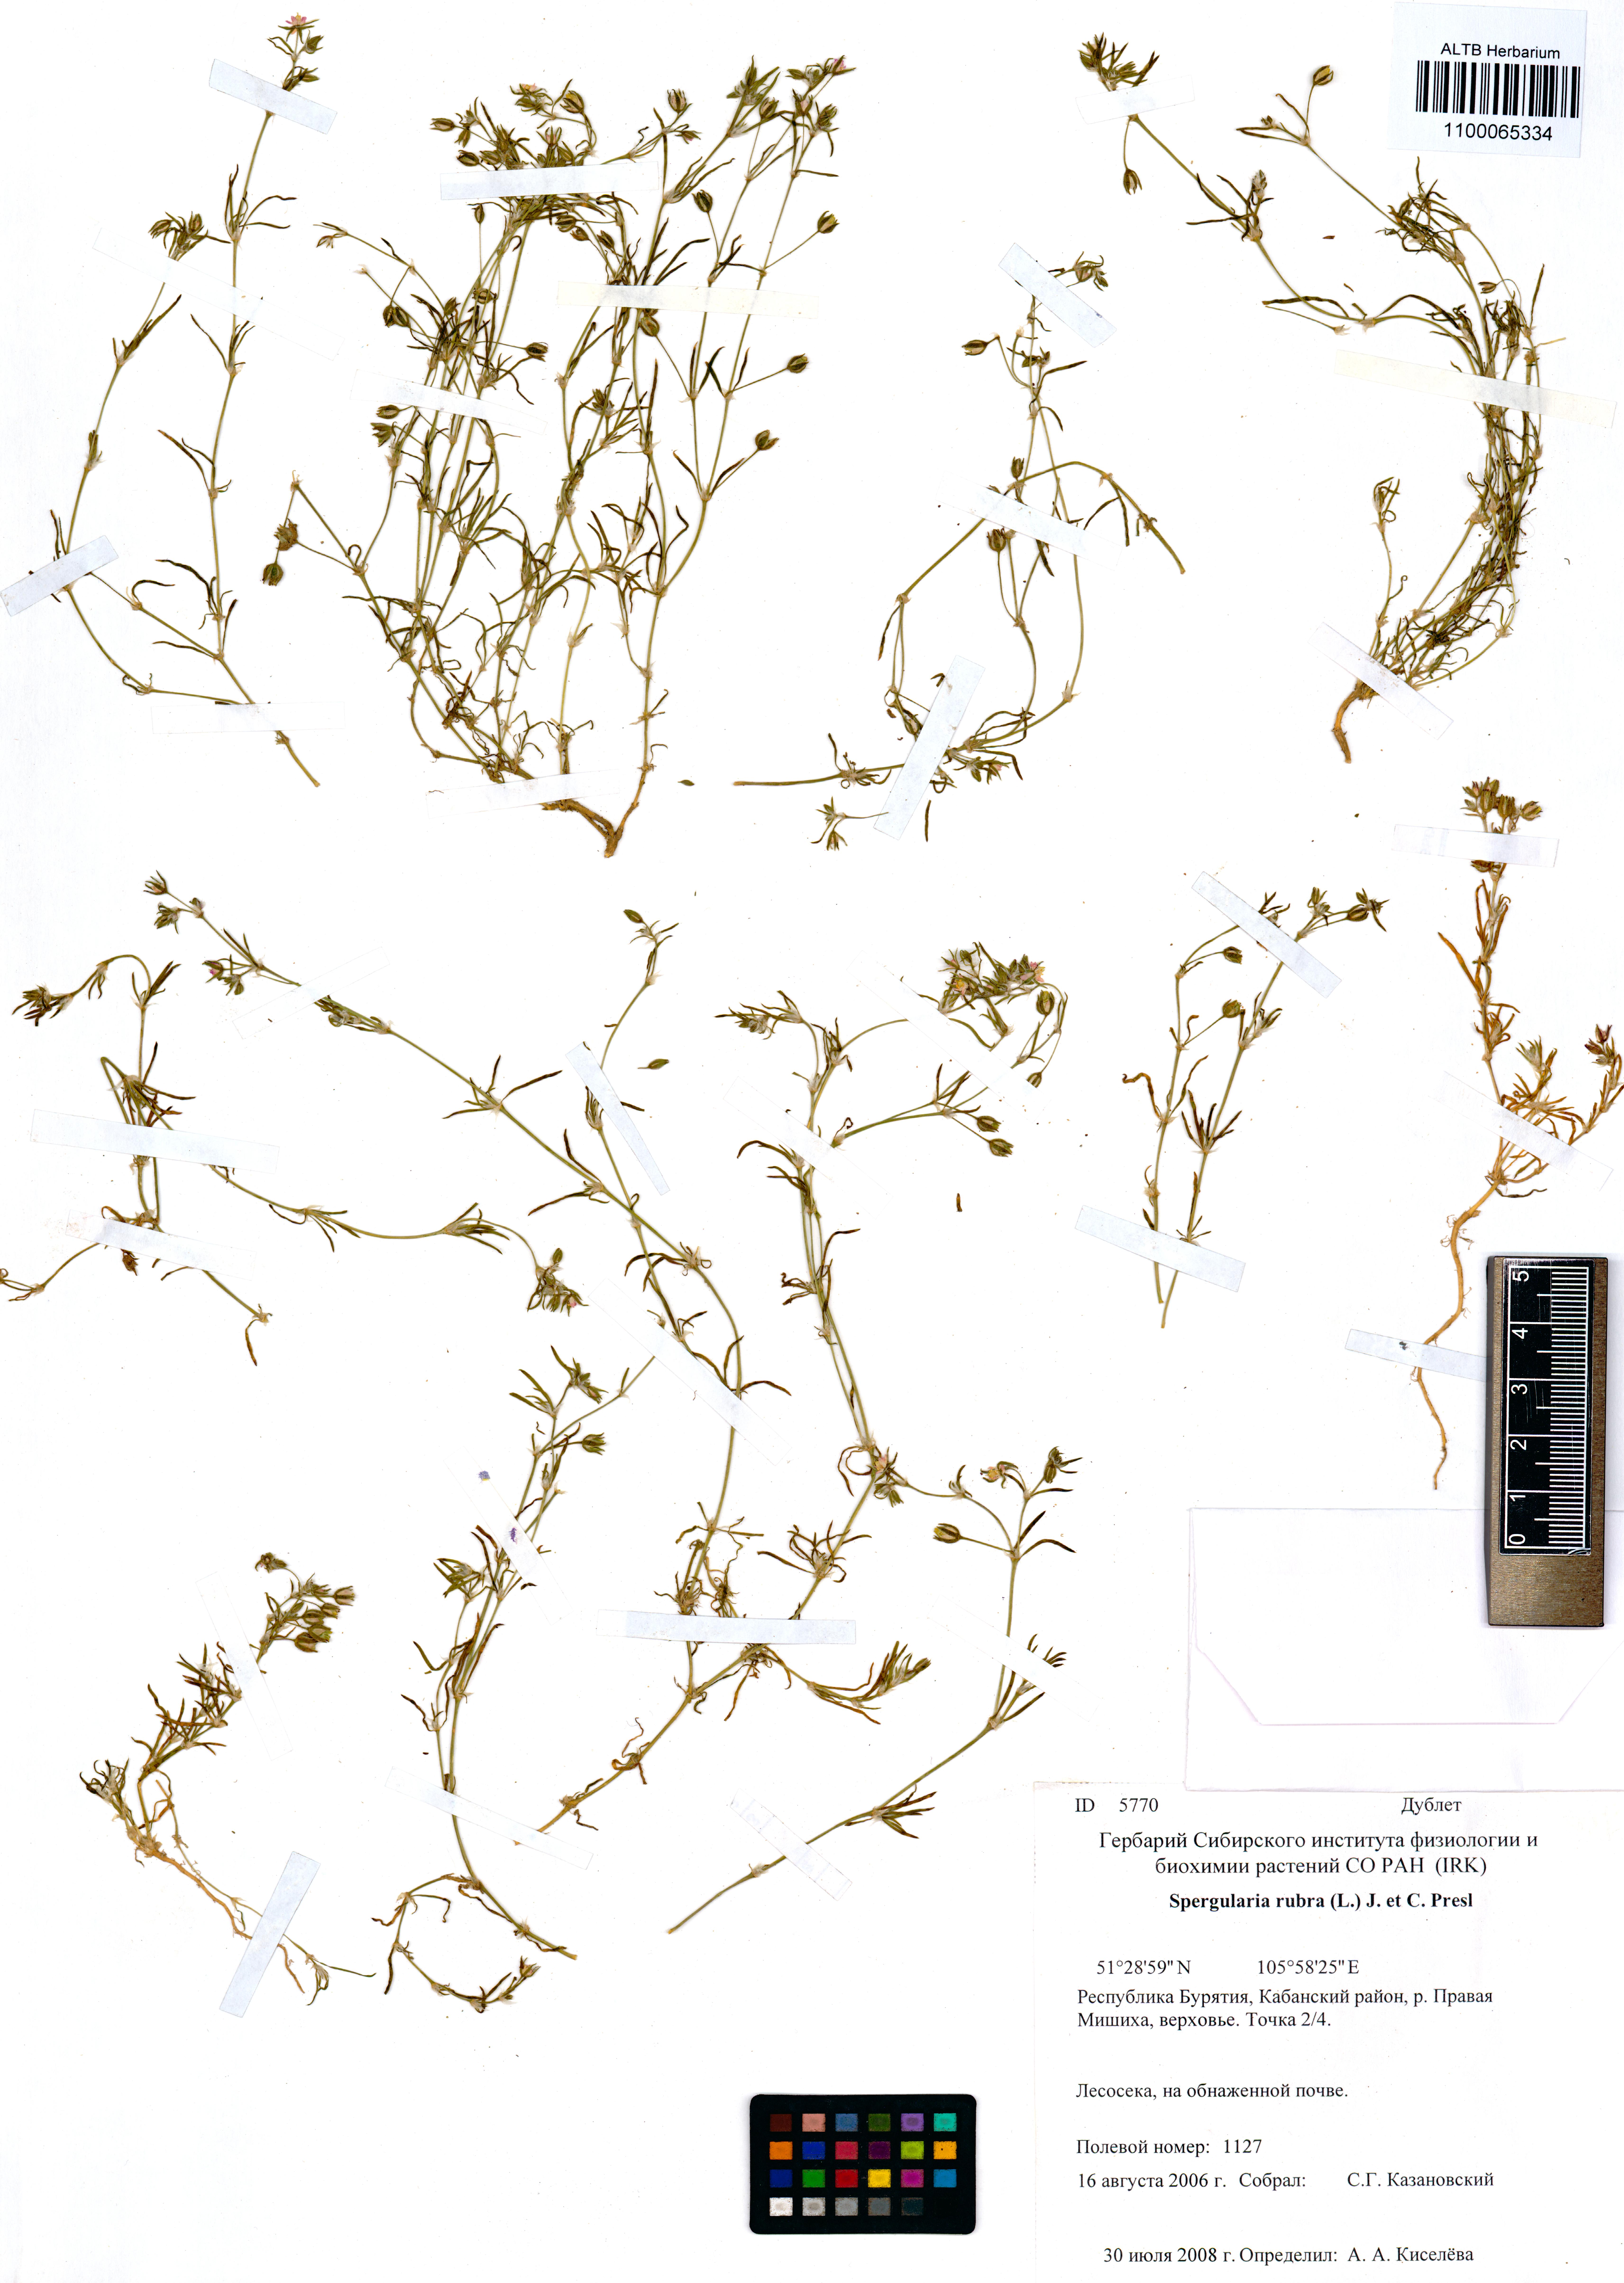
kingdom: Plantae
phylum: Tracheophyta
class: Magnoliopsida
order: Caryophyllales
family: Caryophyllaceae
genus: Spergula
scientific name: Spergula rubra
